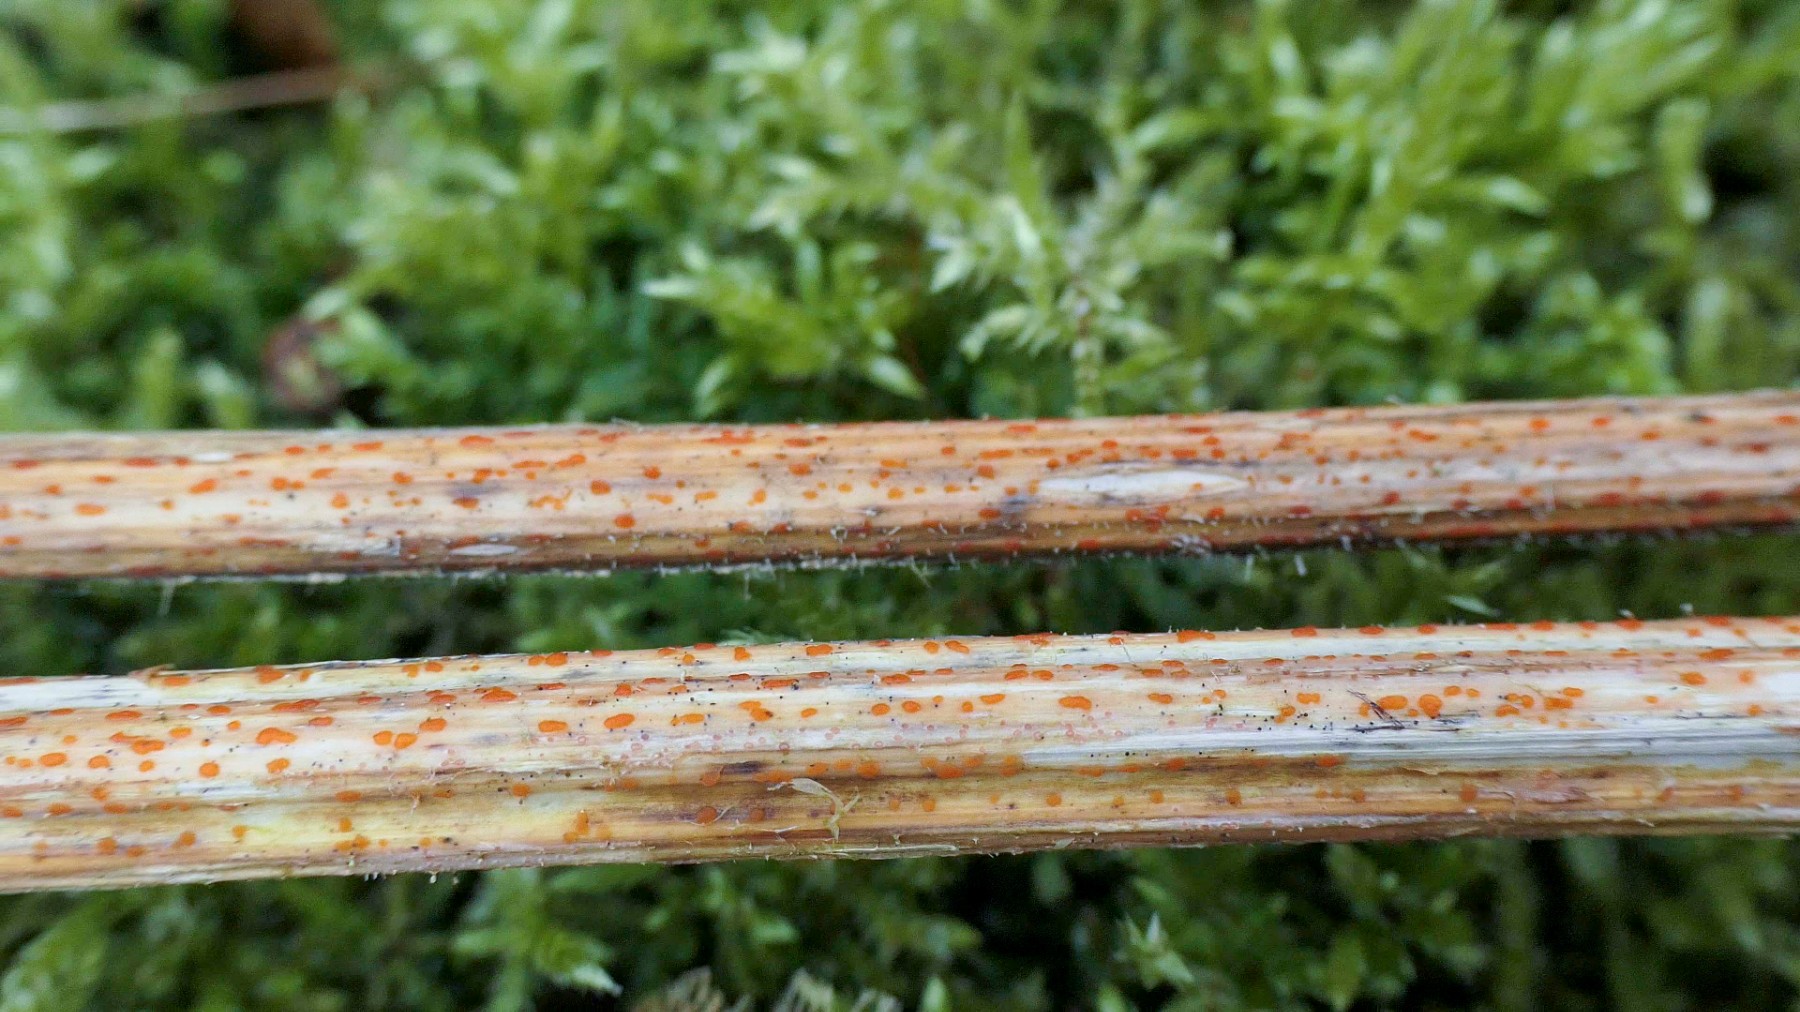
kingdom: Fungi
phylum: Ascomycota
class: Leotiomycetes
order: Helotiales
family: Calloriaceae
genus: Calloria
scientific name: Calloria urticae
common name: nælde-orangeskive
